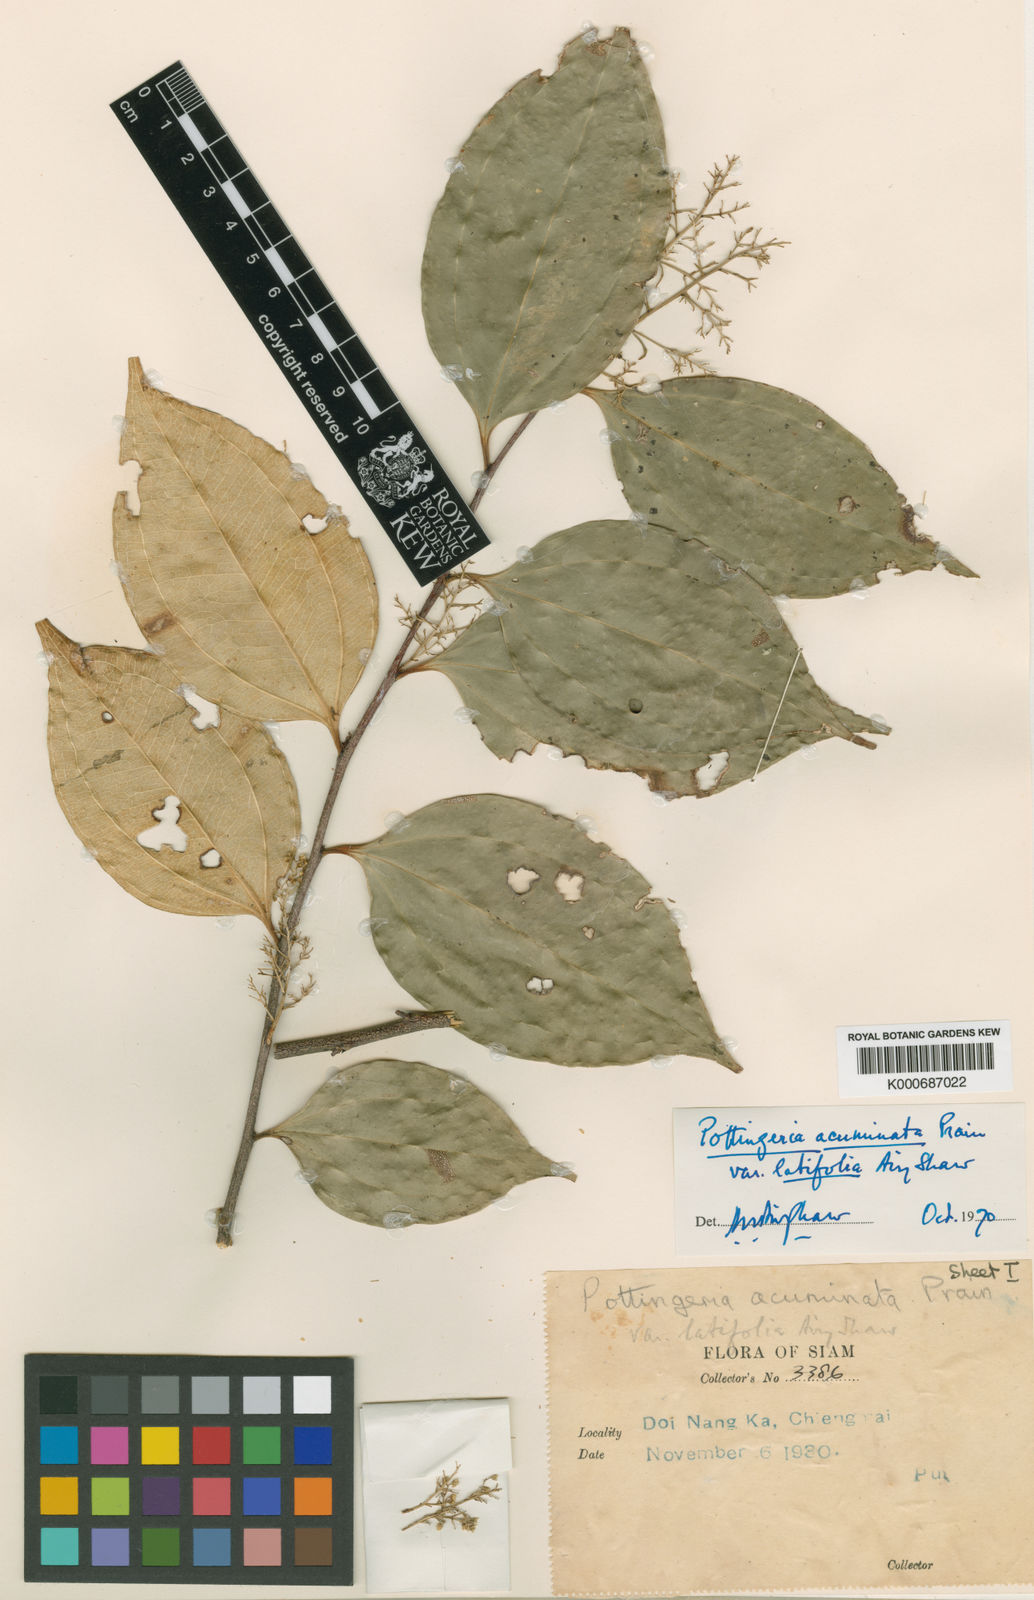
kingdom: Plantae
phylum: Tracheophyta
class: Magnoliopsida
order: Celastrales
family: Celastraceae
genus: Pottingeria
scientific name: Pottingeria
